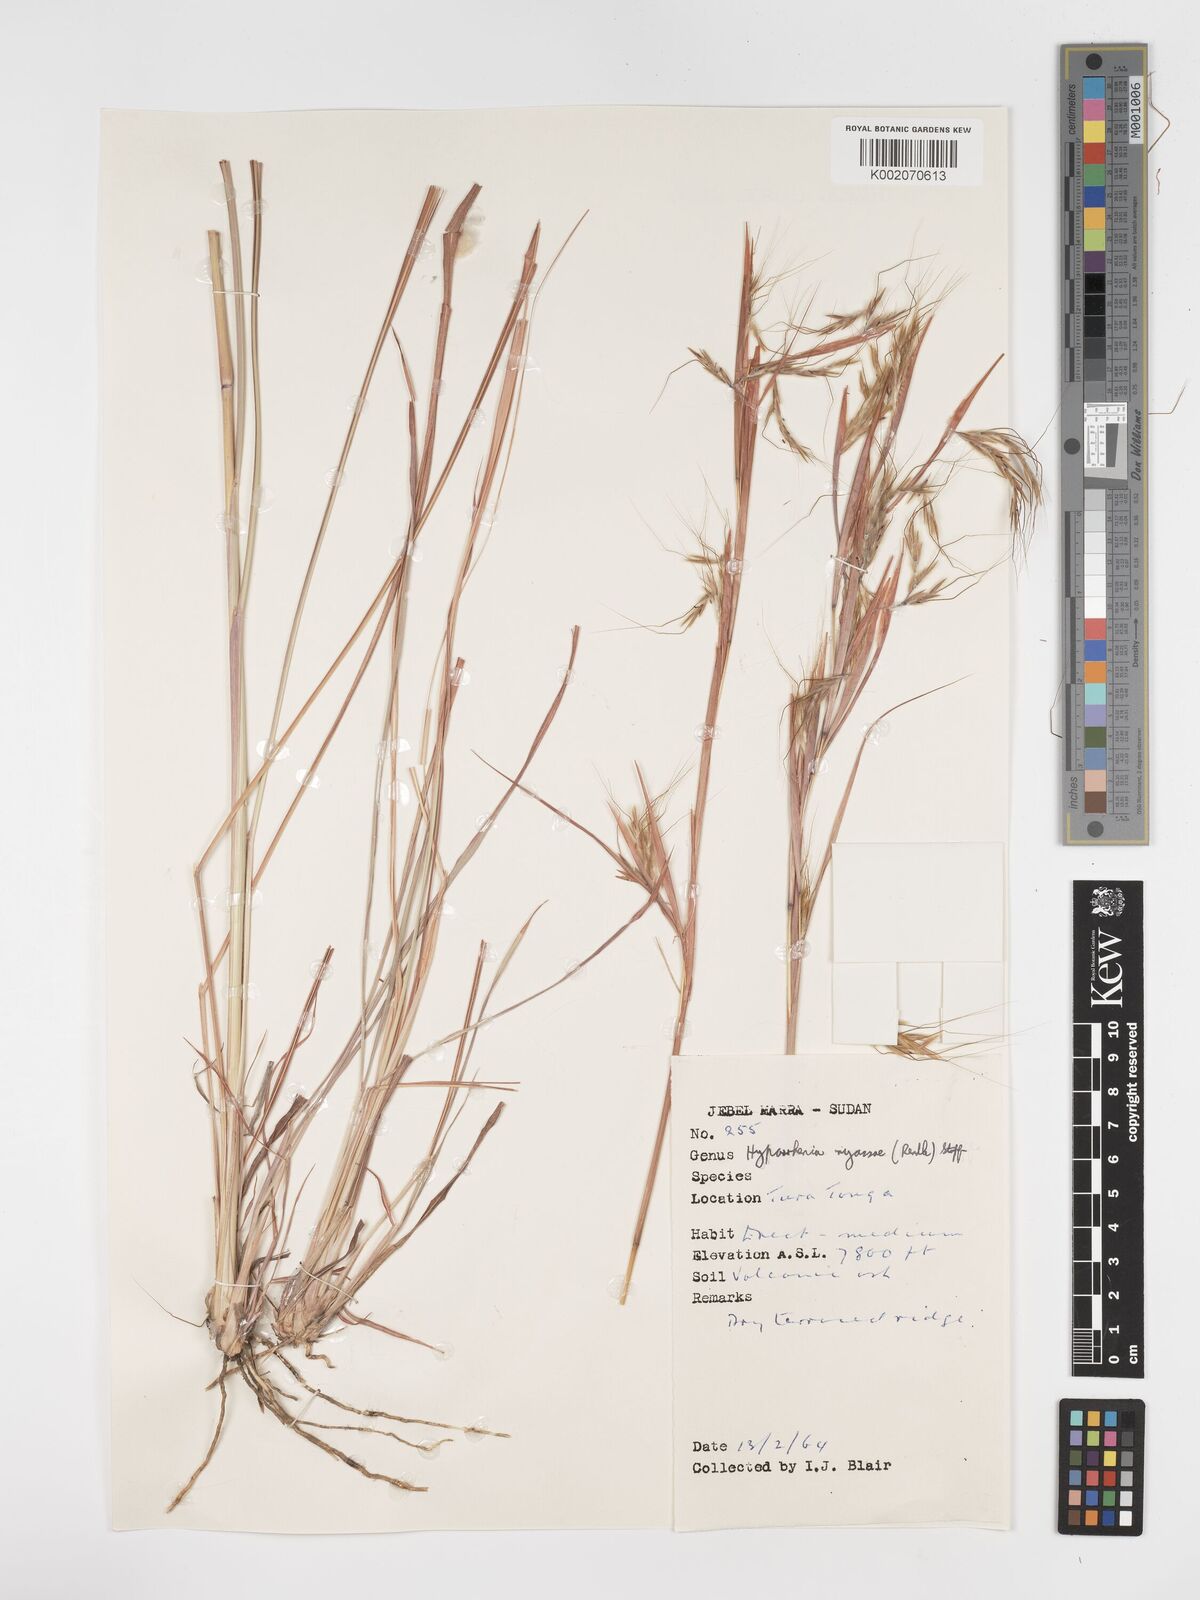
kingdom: Plantae
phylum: Tracheophyta
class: Liliopsida
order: Poales
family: Poaceae
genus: Hyparrhenia
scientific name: Hyparrhenia nyassae
